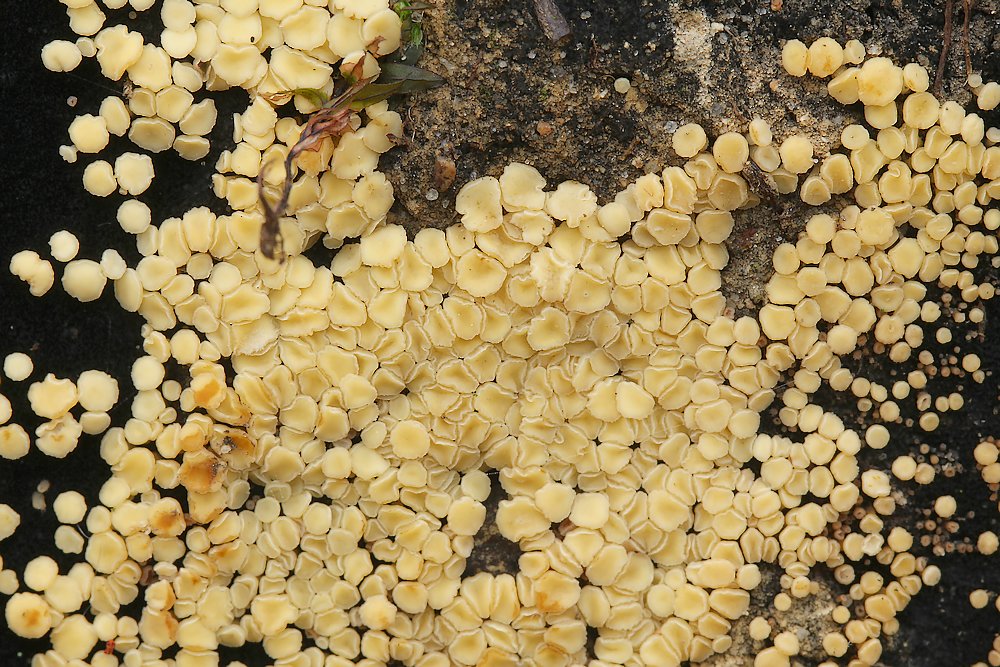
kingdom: Fungi
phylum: Ascomycota
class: Leotiomycetes
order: Helotiales
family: Helotiaceae
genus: Bispora
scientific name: Bispora pallescens
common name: måtte-snitskive
